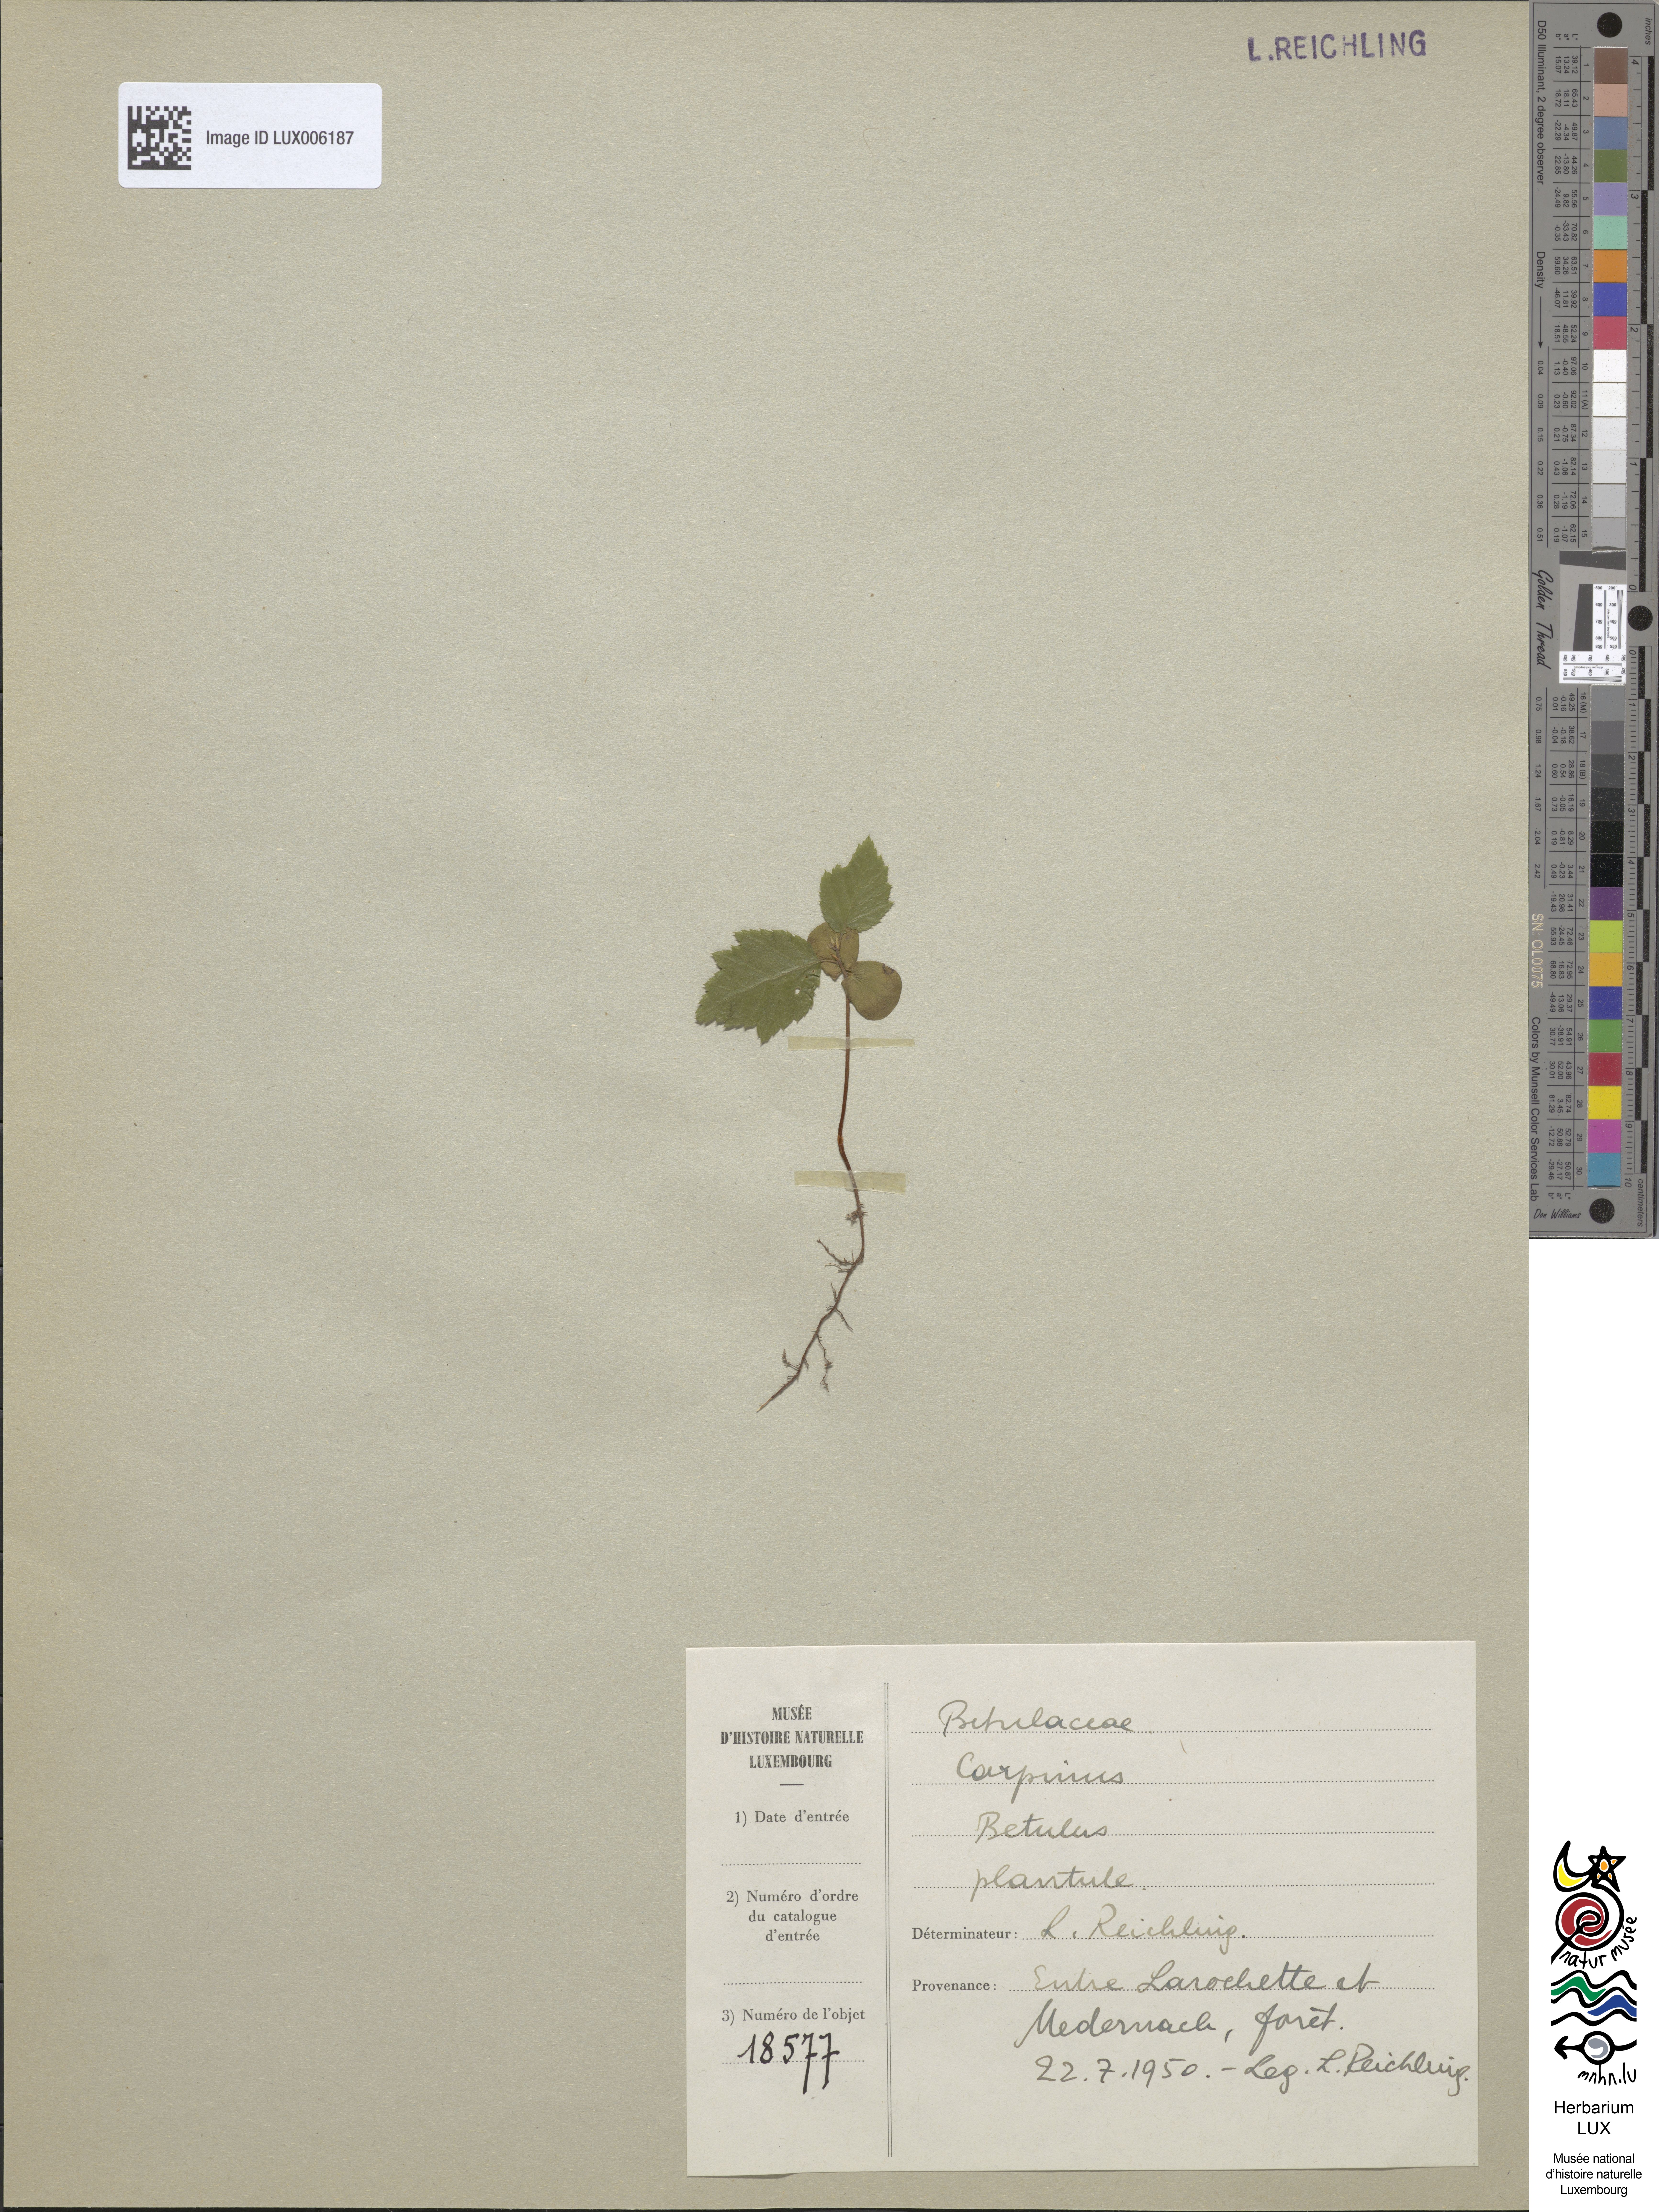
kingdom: Plantae
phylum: Tracheophyta
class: Magnoliopsida
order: Fagales
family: Betulaceae
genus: Carpinus
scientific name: Carpinus betulus
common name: Hornbeam
